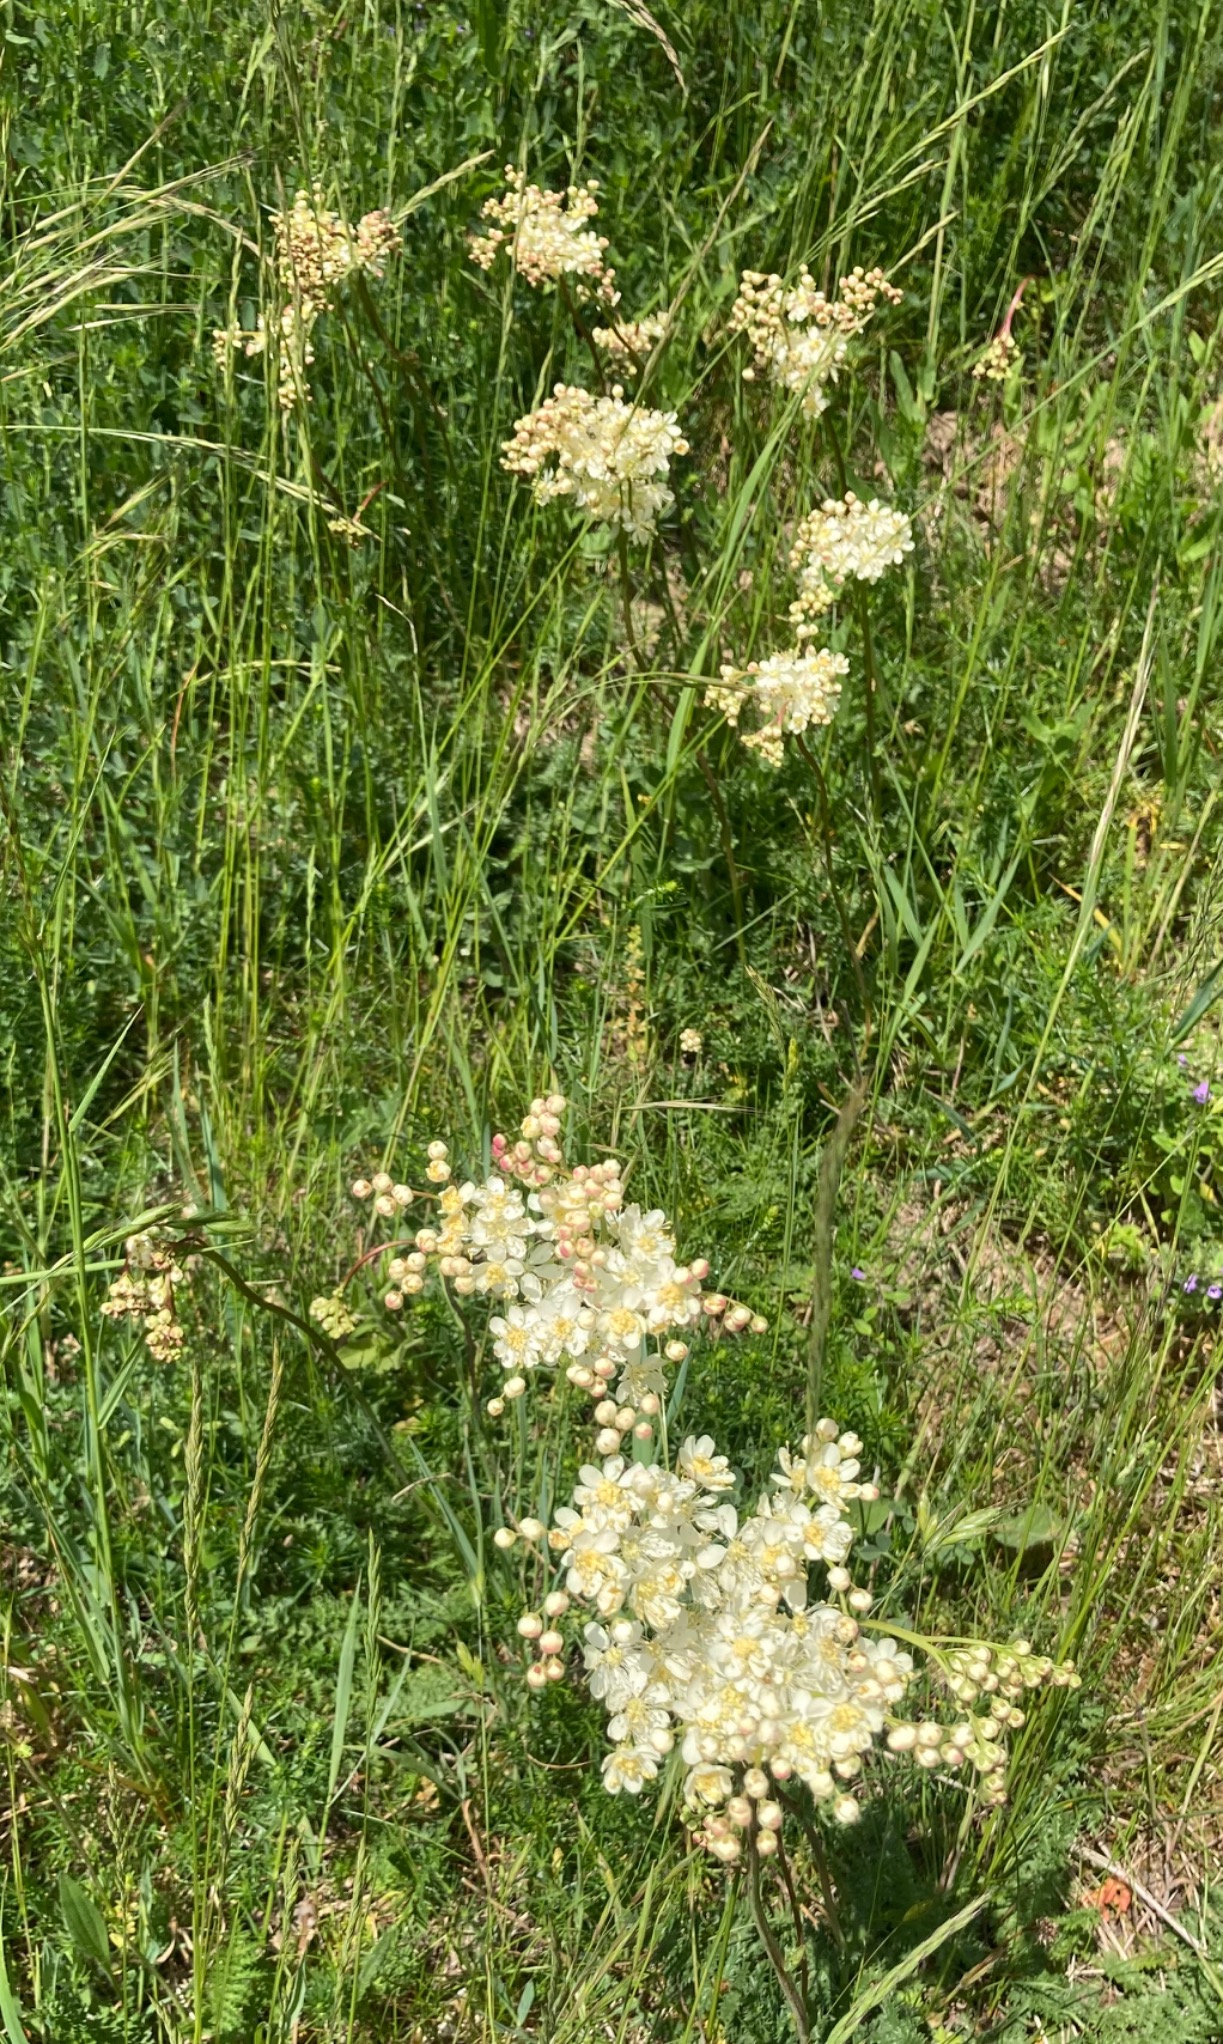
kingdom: Plantae
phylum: Tracheophyta
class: Magnoliopsida
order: Rosales
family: Rosaceae
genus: Filipendula
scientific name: Filipendula vulgaris
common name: Knoldet mjødurt
